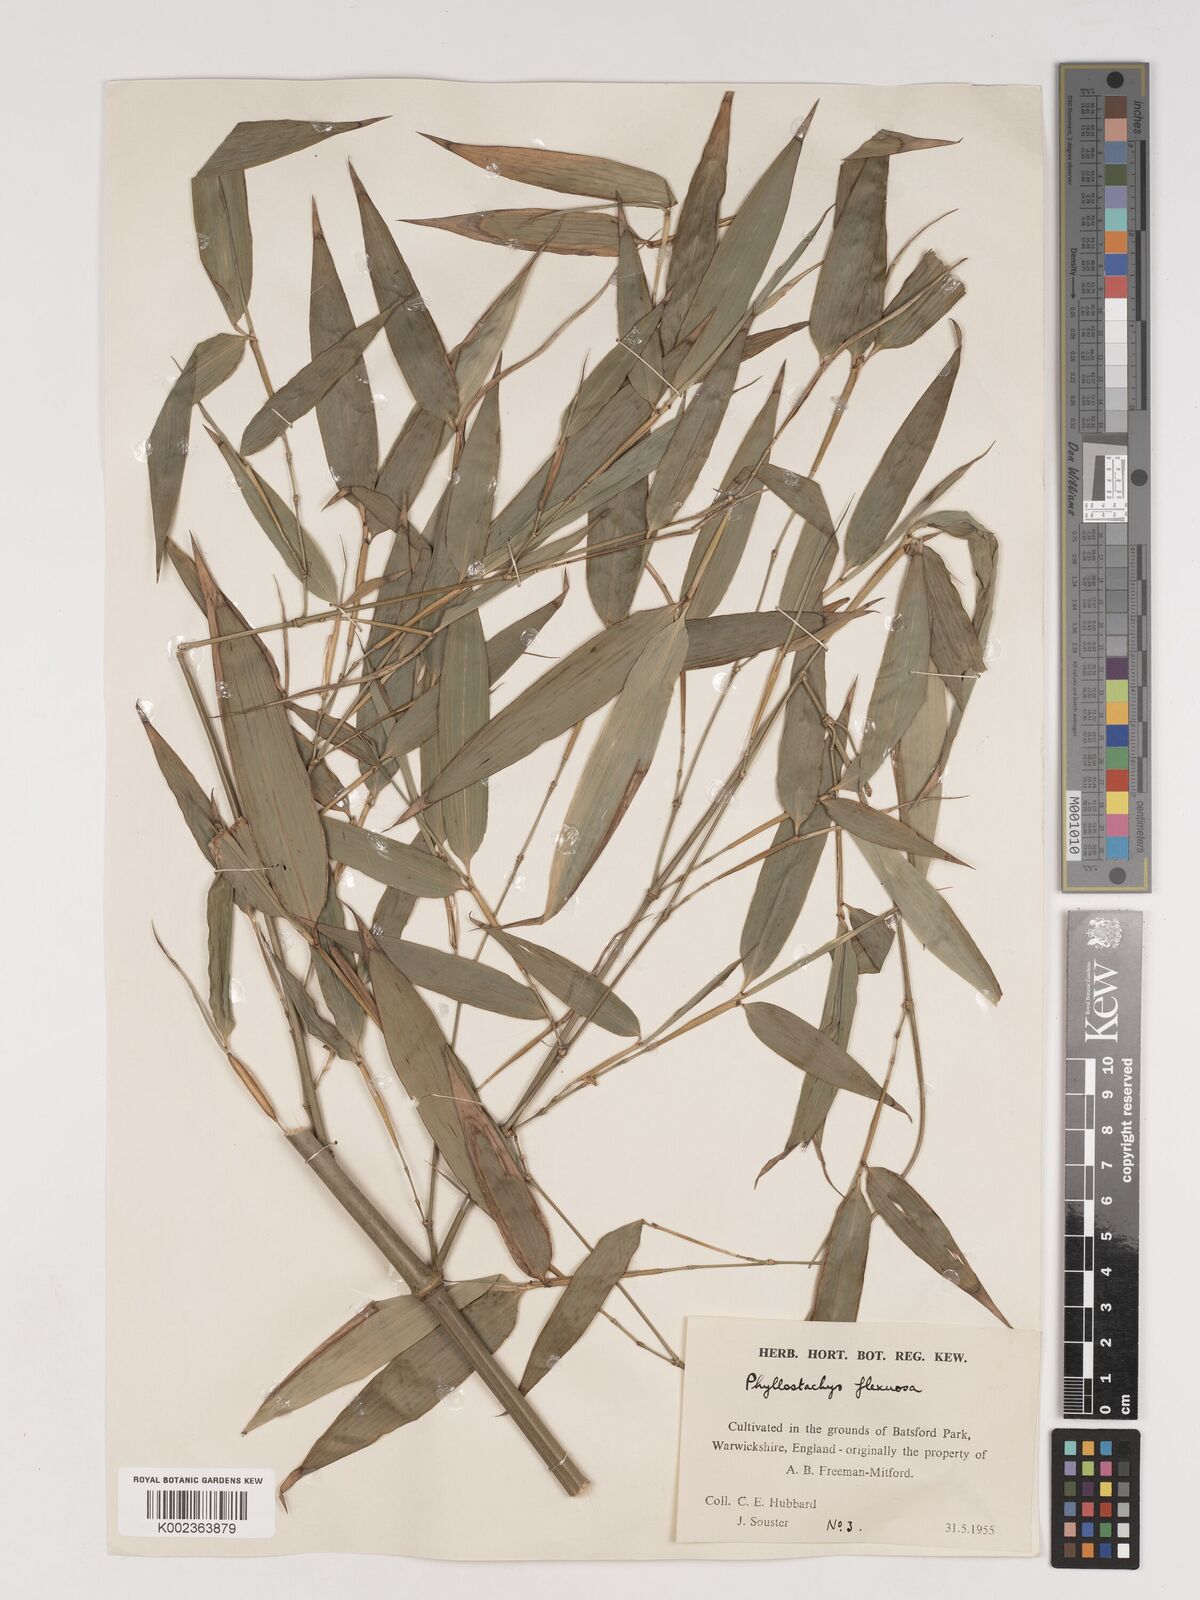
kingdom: Plantae
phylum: Tracheophyta
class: Liliopsida
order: Poales
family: Poaceae
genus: Phyllostachys
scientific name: Phyllostachys flexuosa
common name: Drooping timber bamboo
